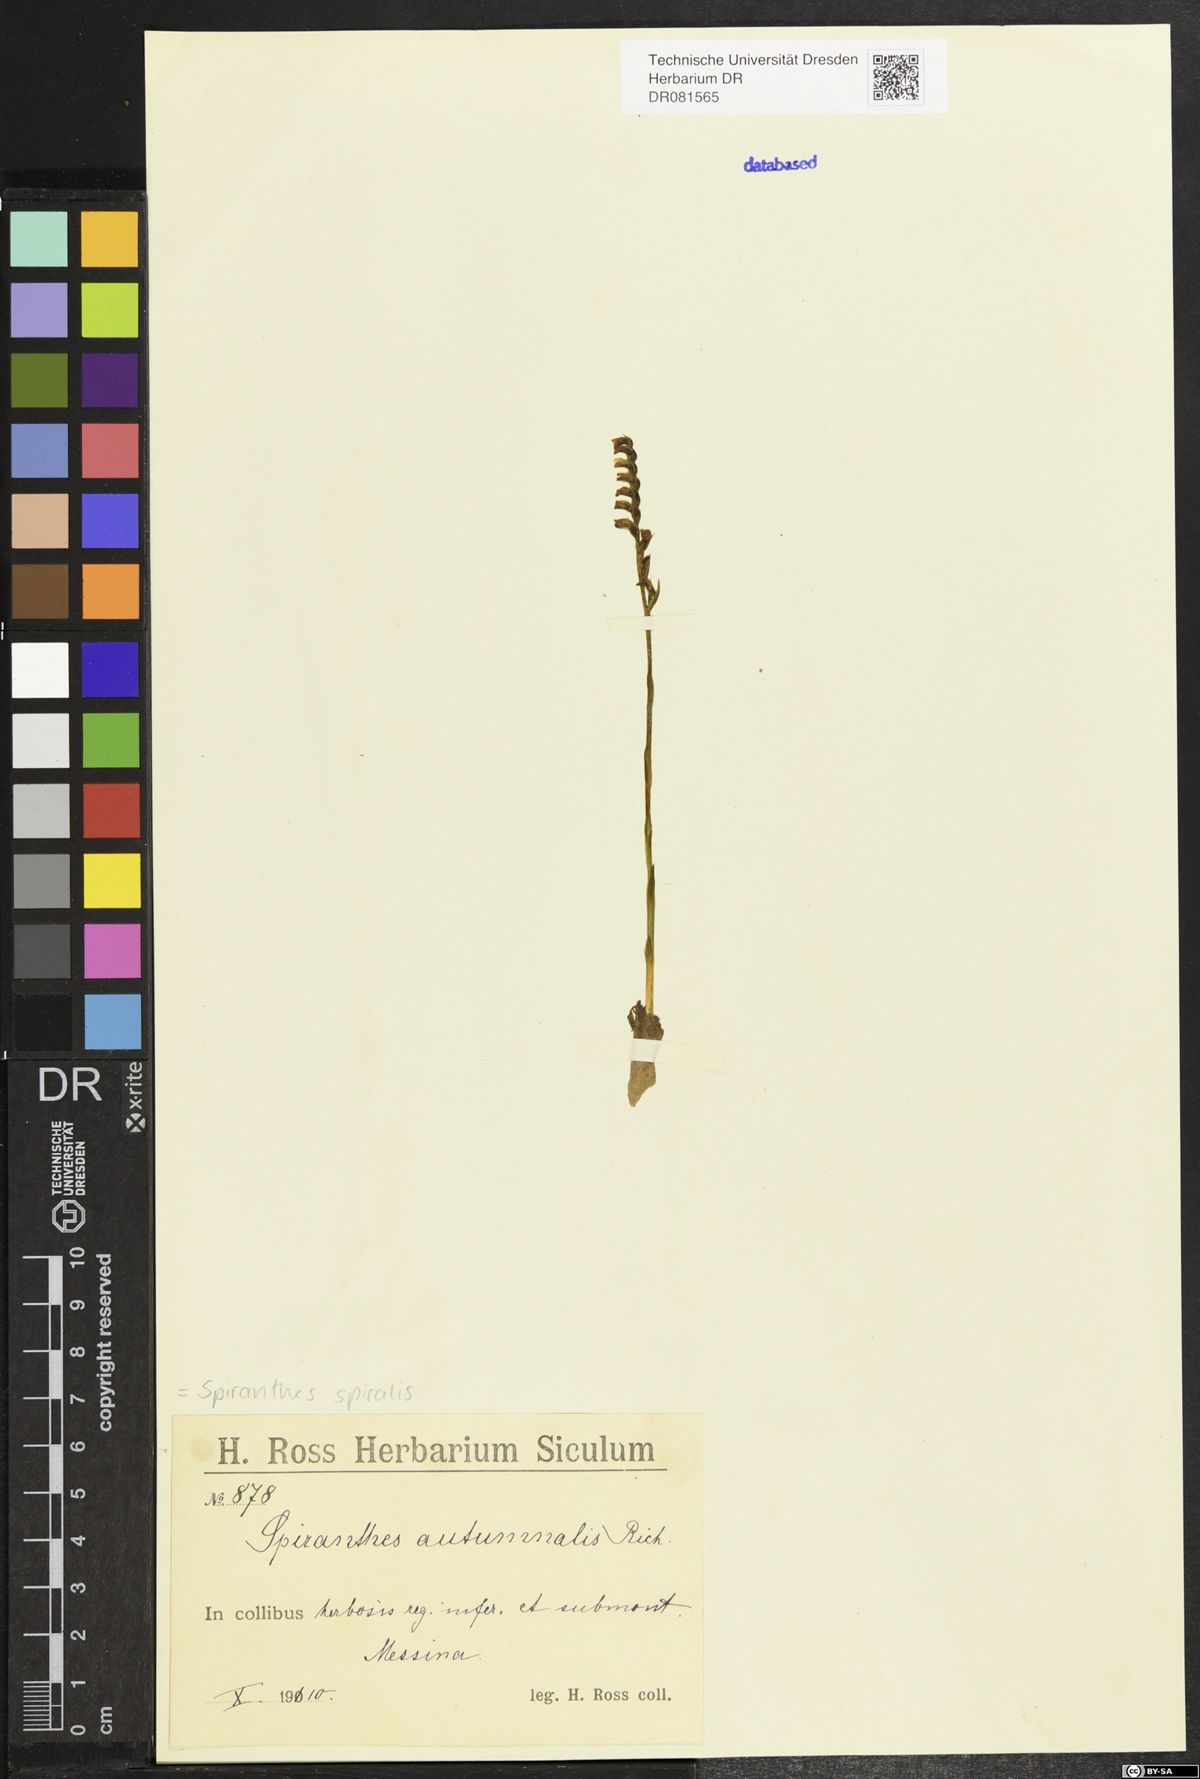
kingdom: Plantae
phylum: Tracheophyta
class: Liliopsida
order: Asparagales
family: Orchidaceae
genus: Spiranthes
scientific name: Spiranthes spiralis
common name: Autumn lady's-tresses
